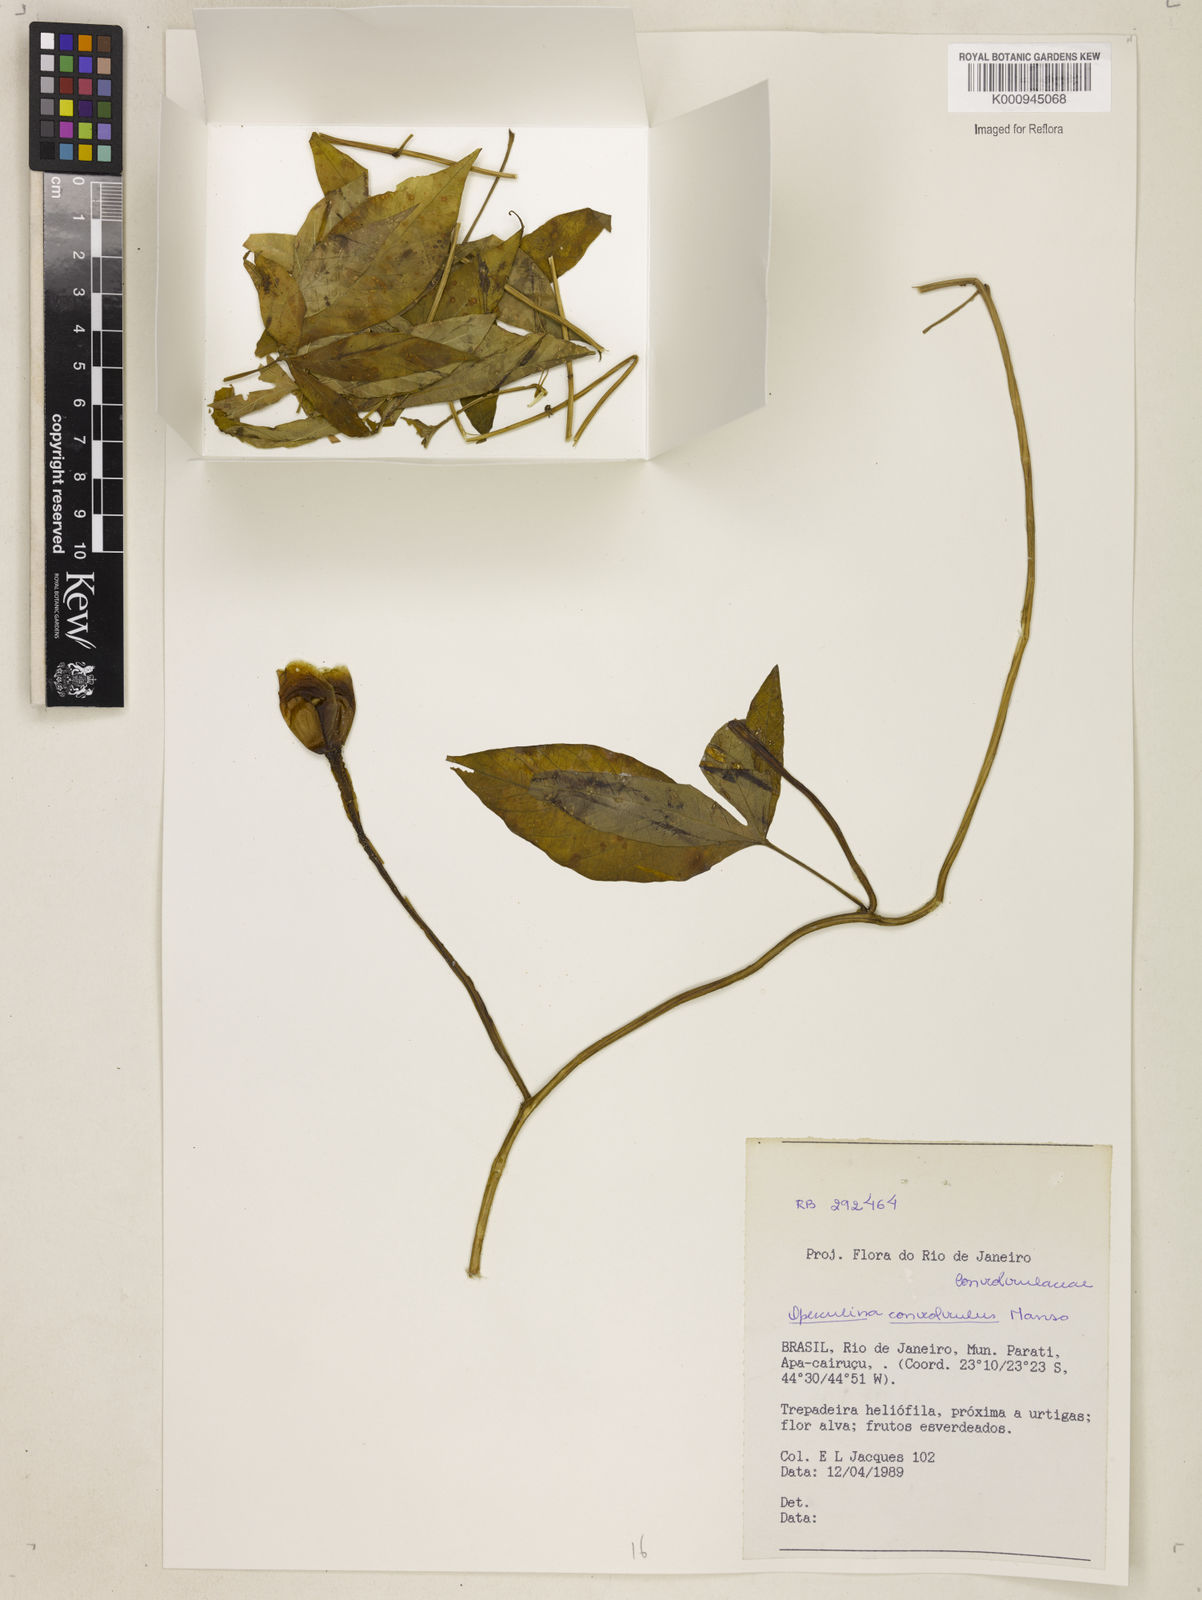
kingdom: Plantae
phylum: Tracheophyta
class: Magnoliopsida
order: Solanales
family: Convolvulaceae
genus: Operculina
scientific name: Operculina macrocarpa
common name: Brazilian jalap
